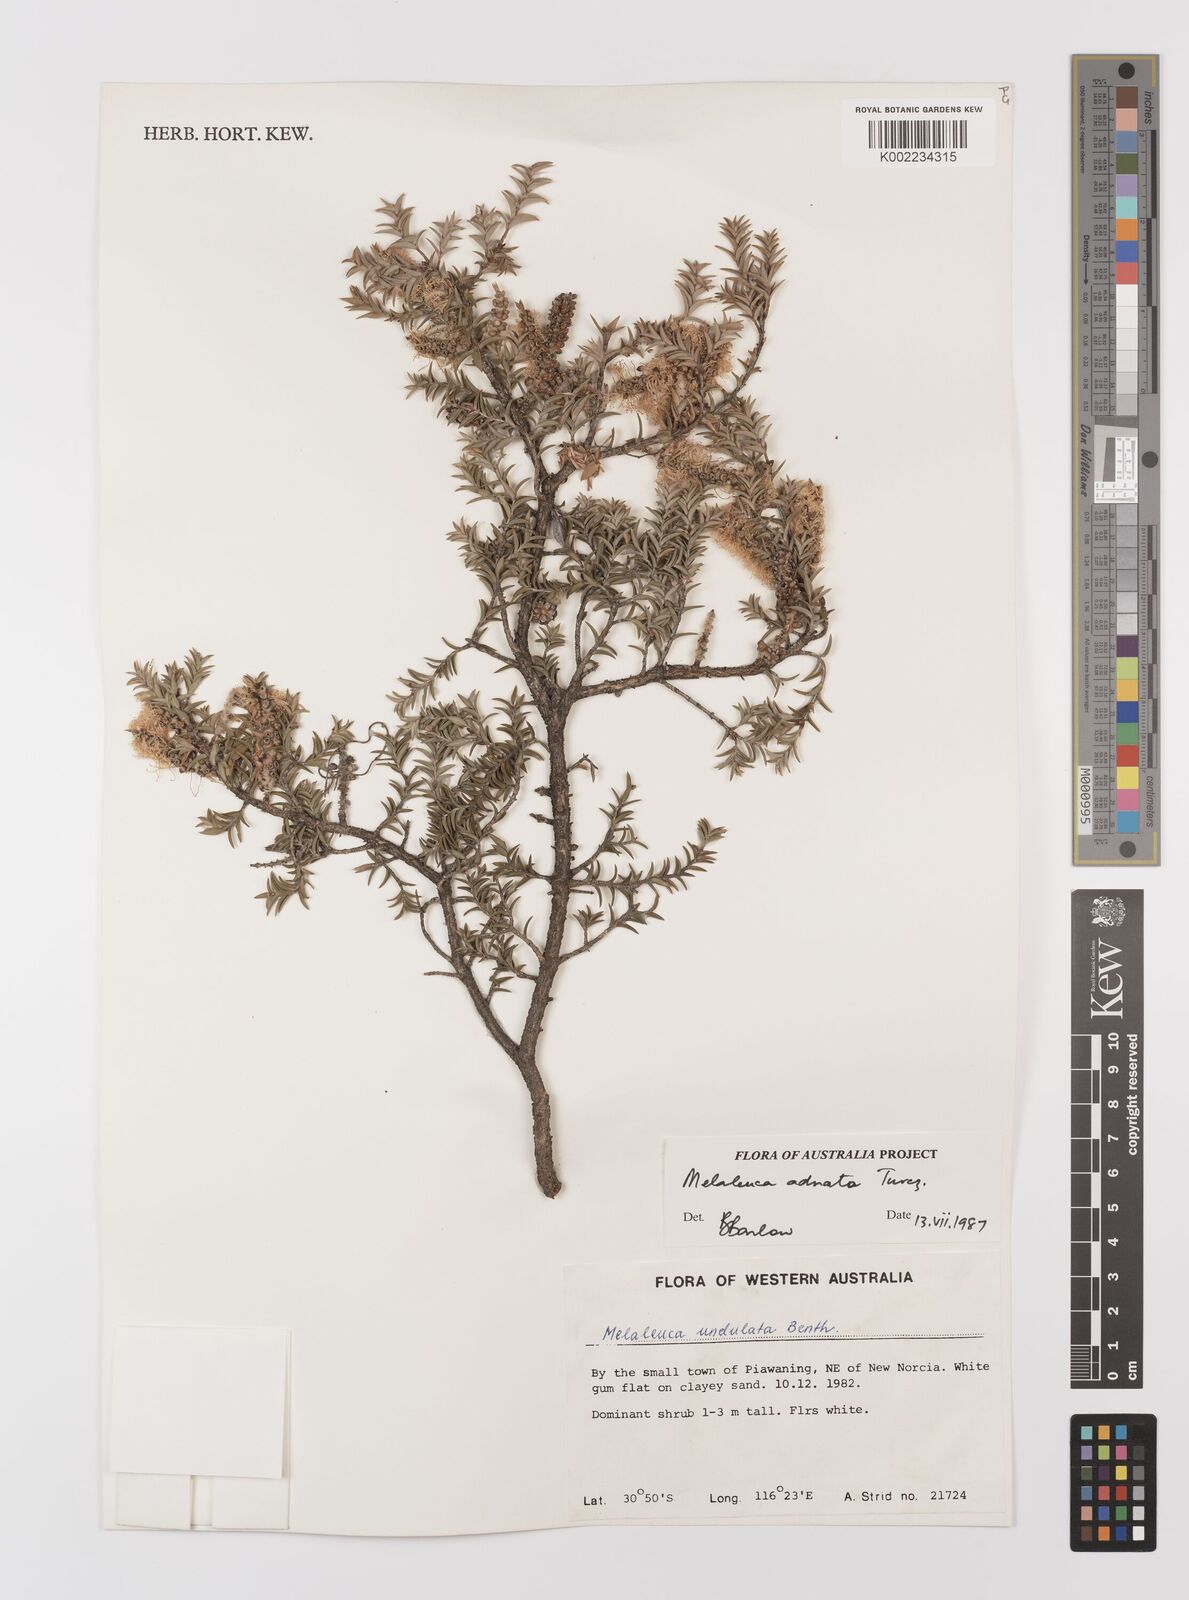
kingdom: Plantae
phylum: Tracheophyta
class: Magnoliopsida
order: Myrtales
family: Myrtaceae
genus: Melaleuca
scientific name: Melaleuca undulata
